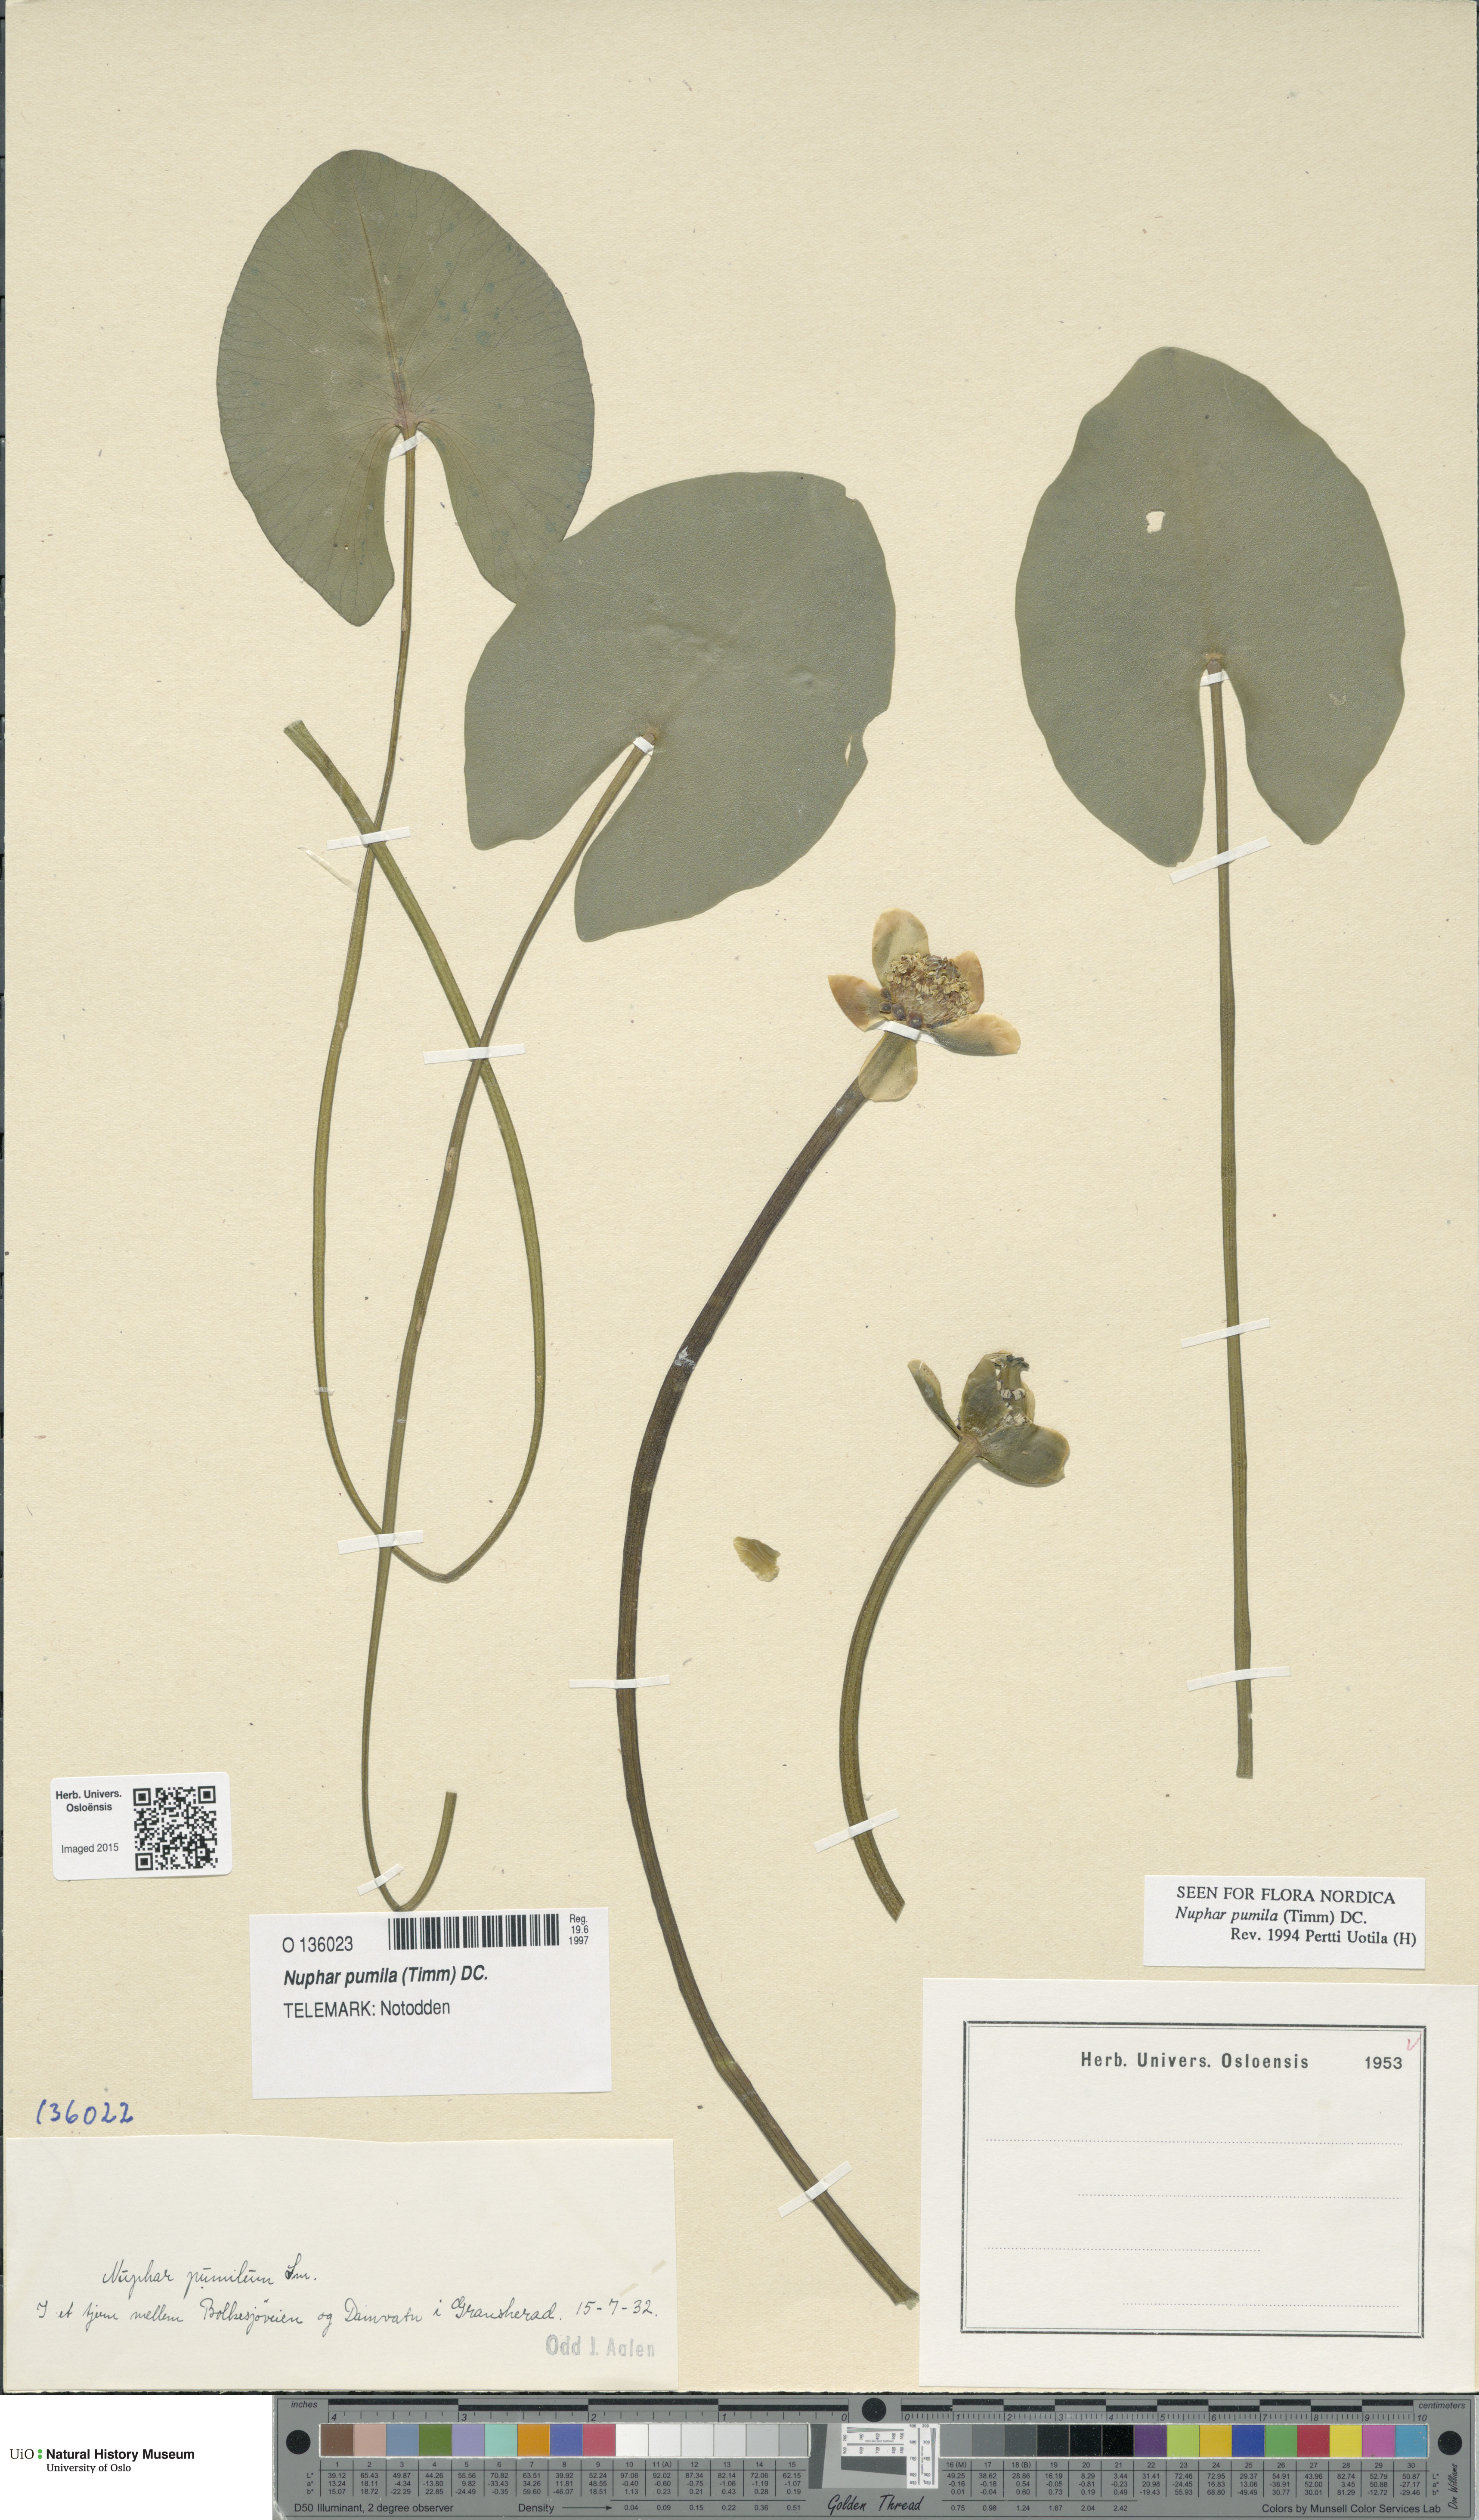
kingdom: Plantae
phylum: Tracheophyta
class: Magnoliopsida
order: Nymphaeales
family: Nymphaeaceae
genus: Nuphar
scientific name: Nuphar pumila
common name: Least water-lily
